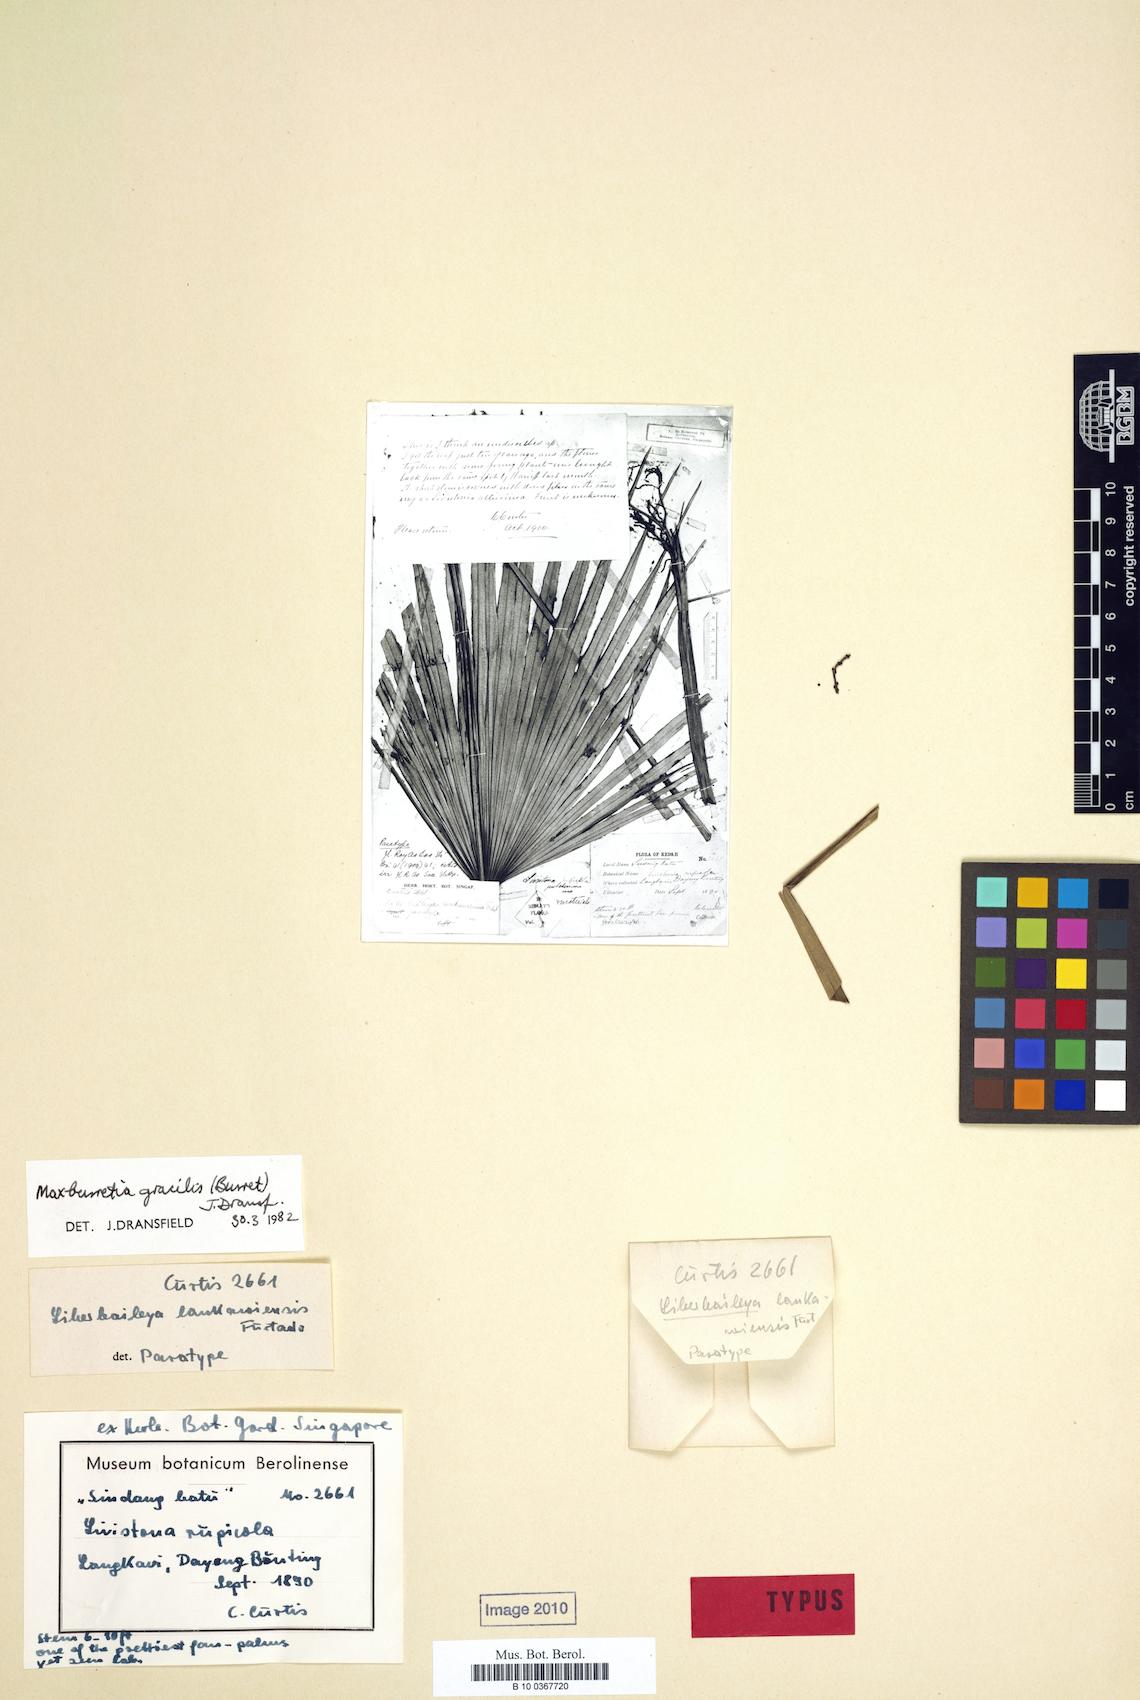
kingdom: Plantae
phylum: Tracheophyta
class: Liliopsida
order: Arecales
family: Arecaceae
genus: Maxburretia
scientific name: Maxburretia gracilis
